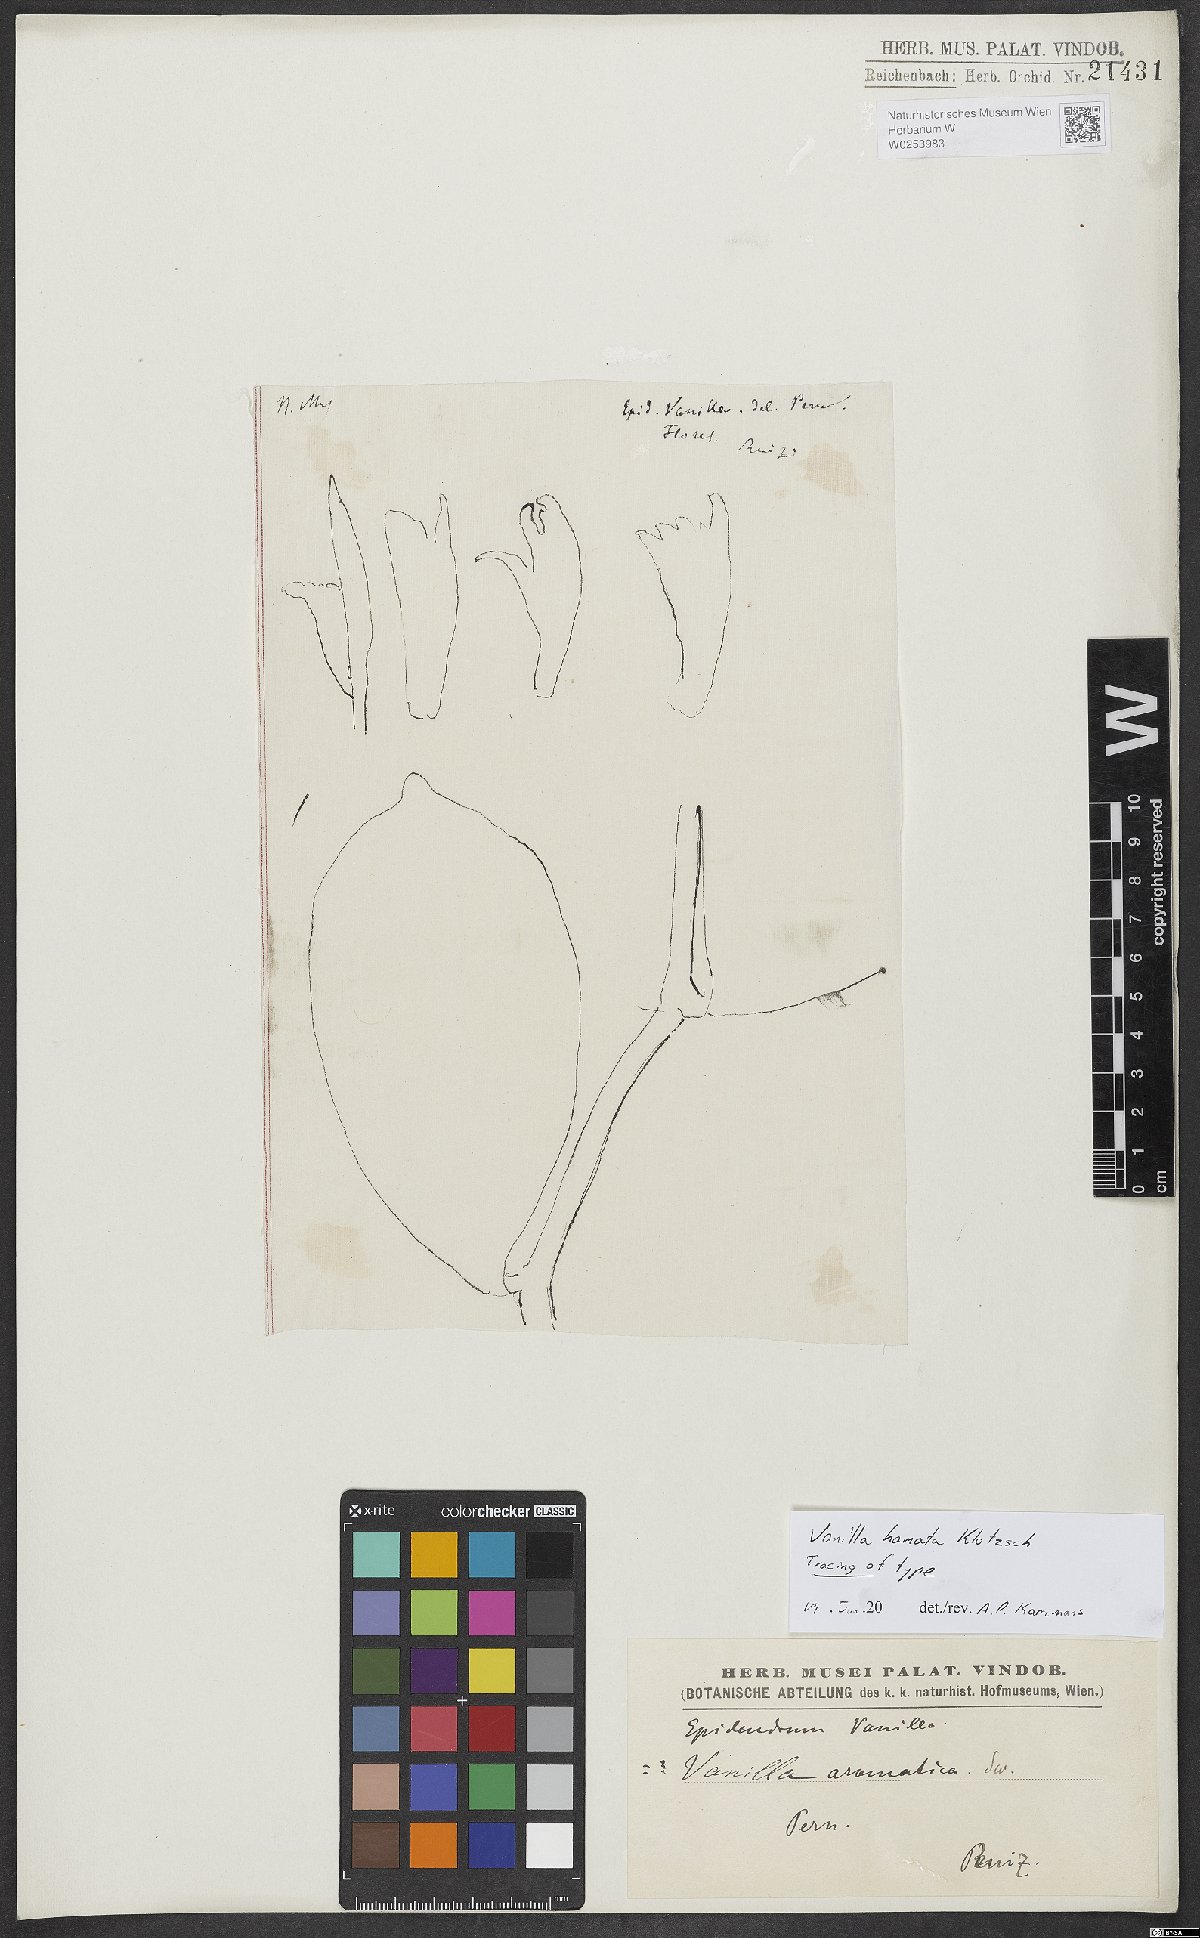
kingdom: Plantae
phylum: Tracheophyta
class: Liliopsida
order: Asparagales
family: Orchidaceae
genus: Vanilla
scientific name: Vanilla
